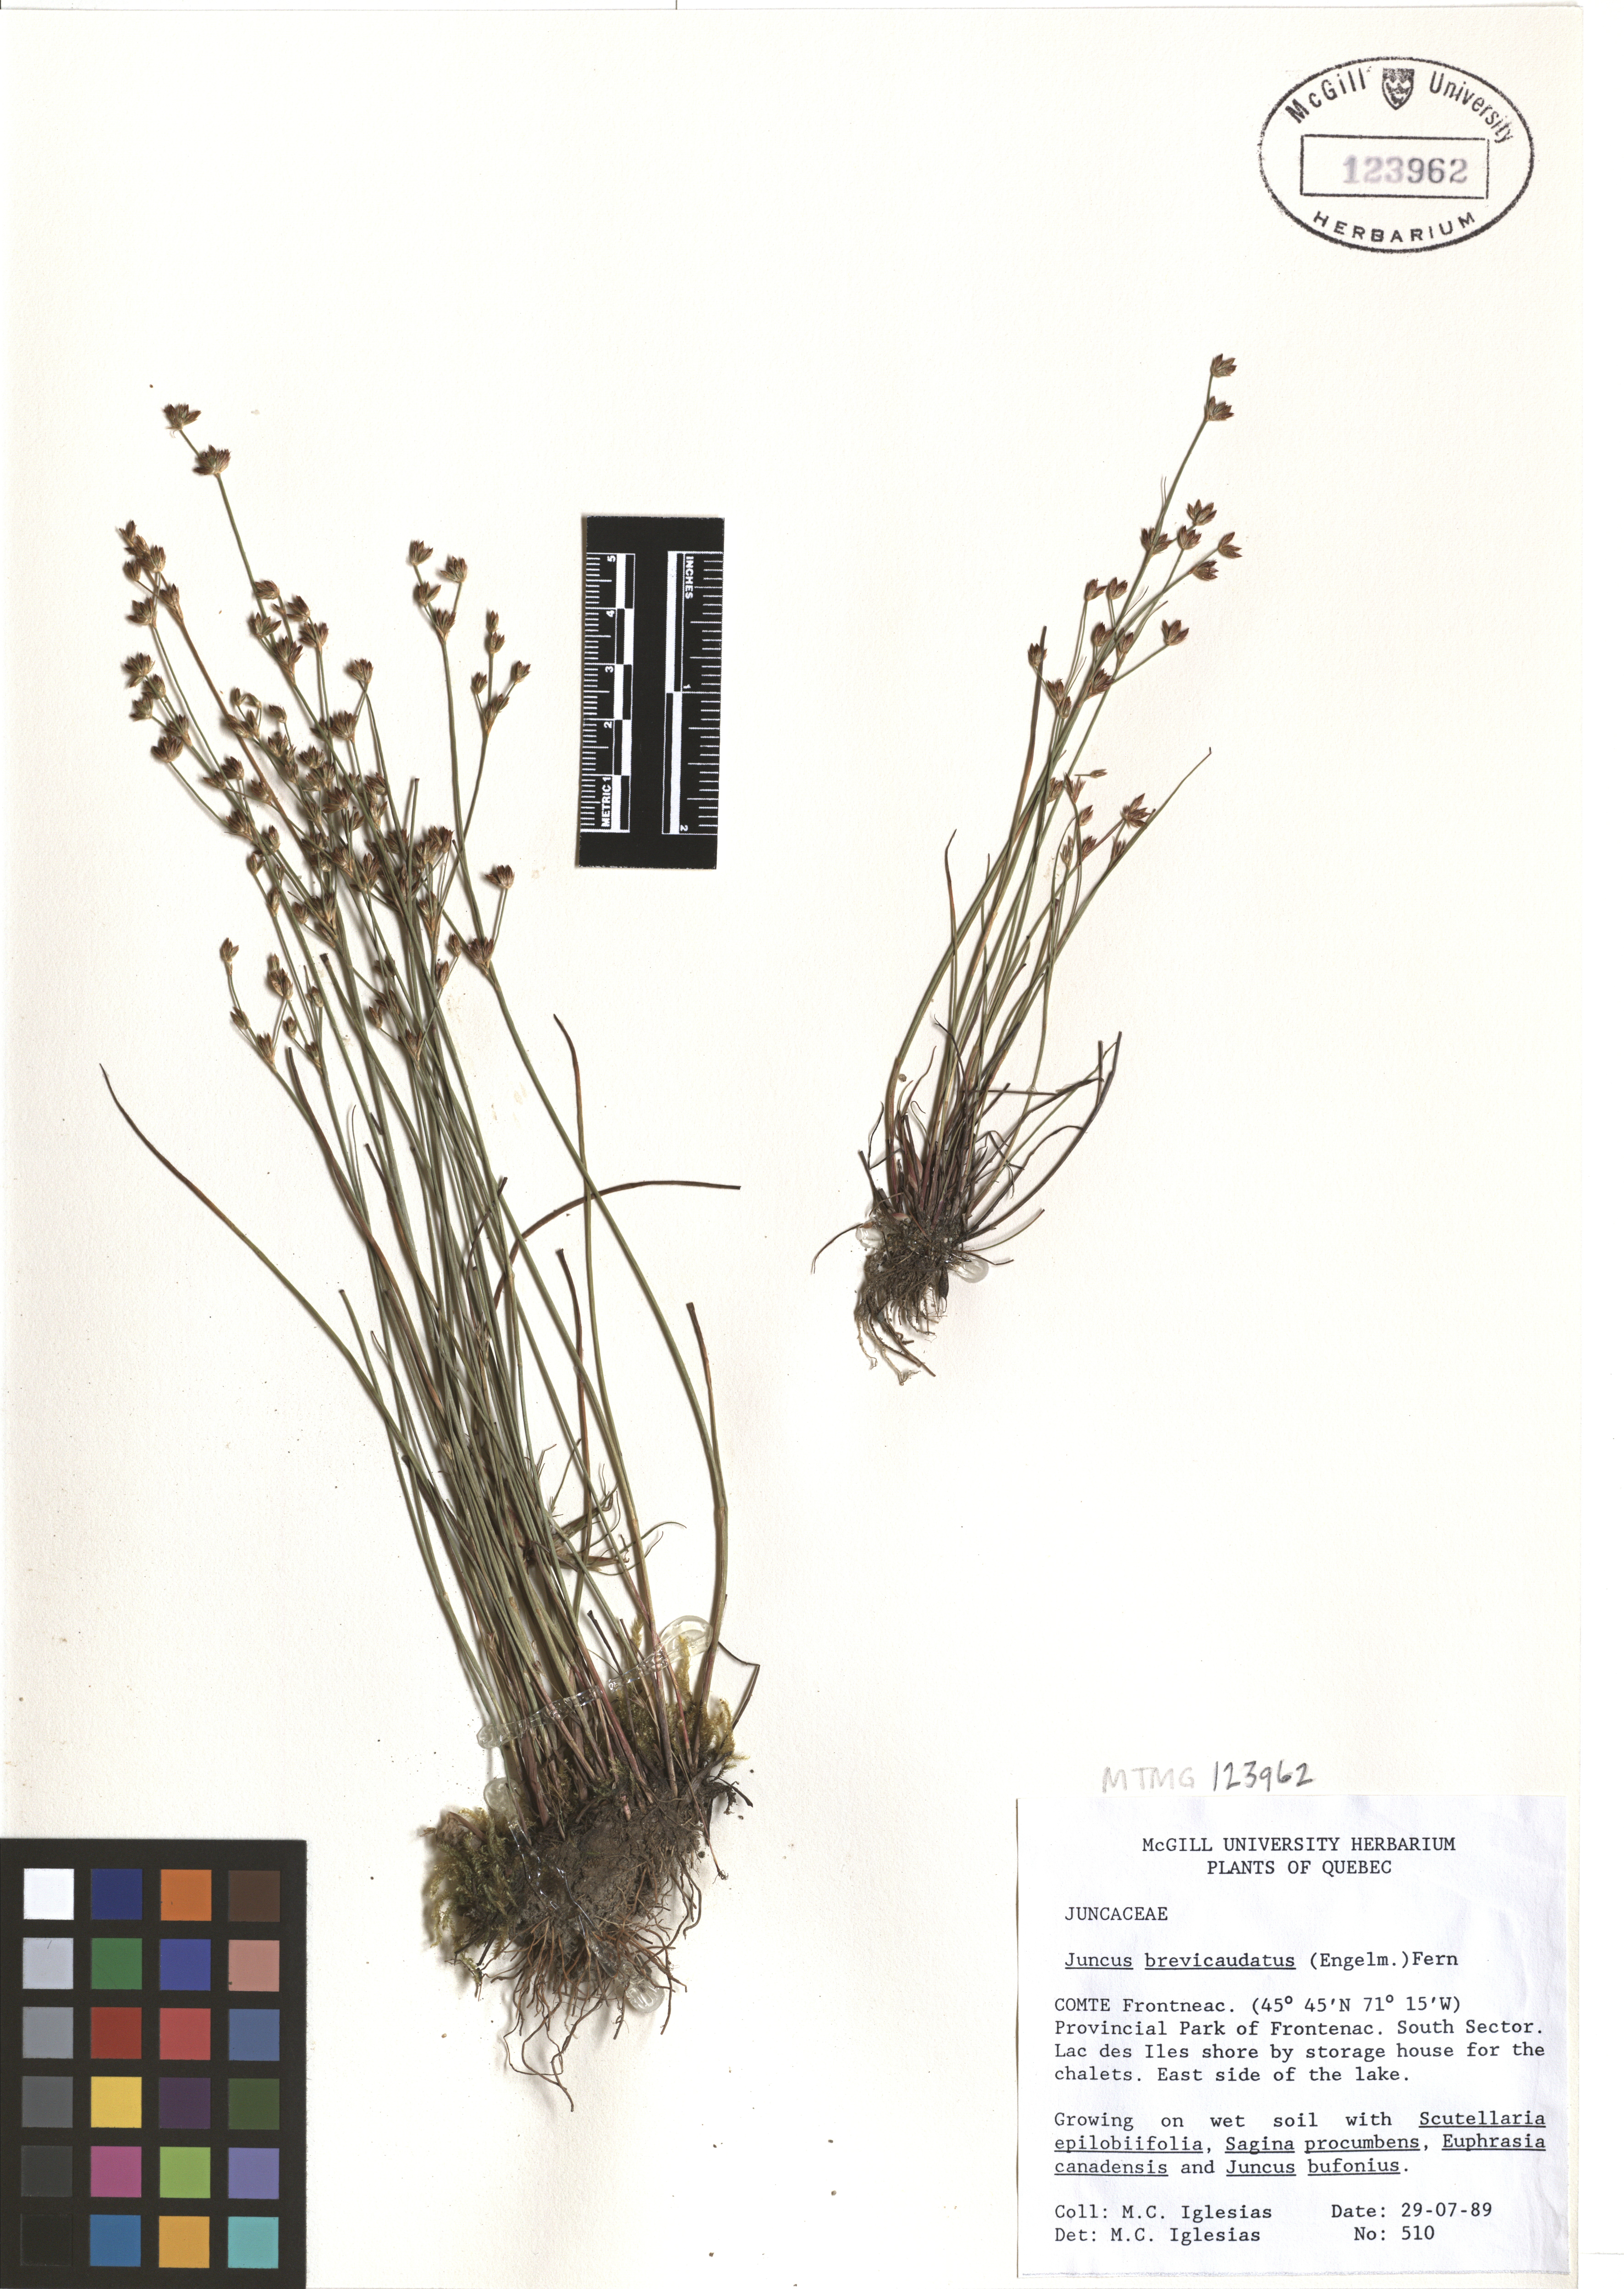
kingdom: Plantae
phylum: Tracheophyta
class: Liliopsida
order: Poales
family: Juncaceae
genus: Juncus
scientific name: Juncus brevicaudatus
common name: Narrow-panicle rush
